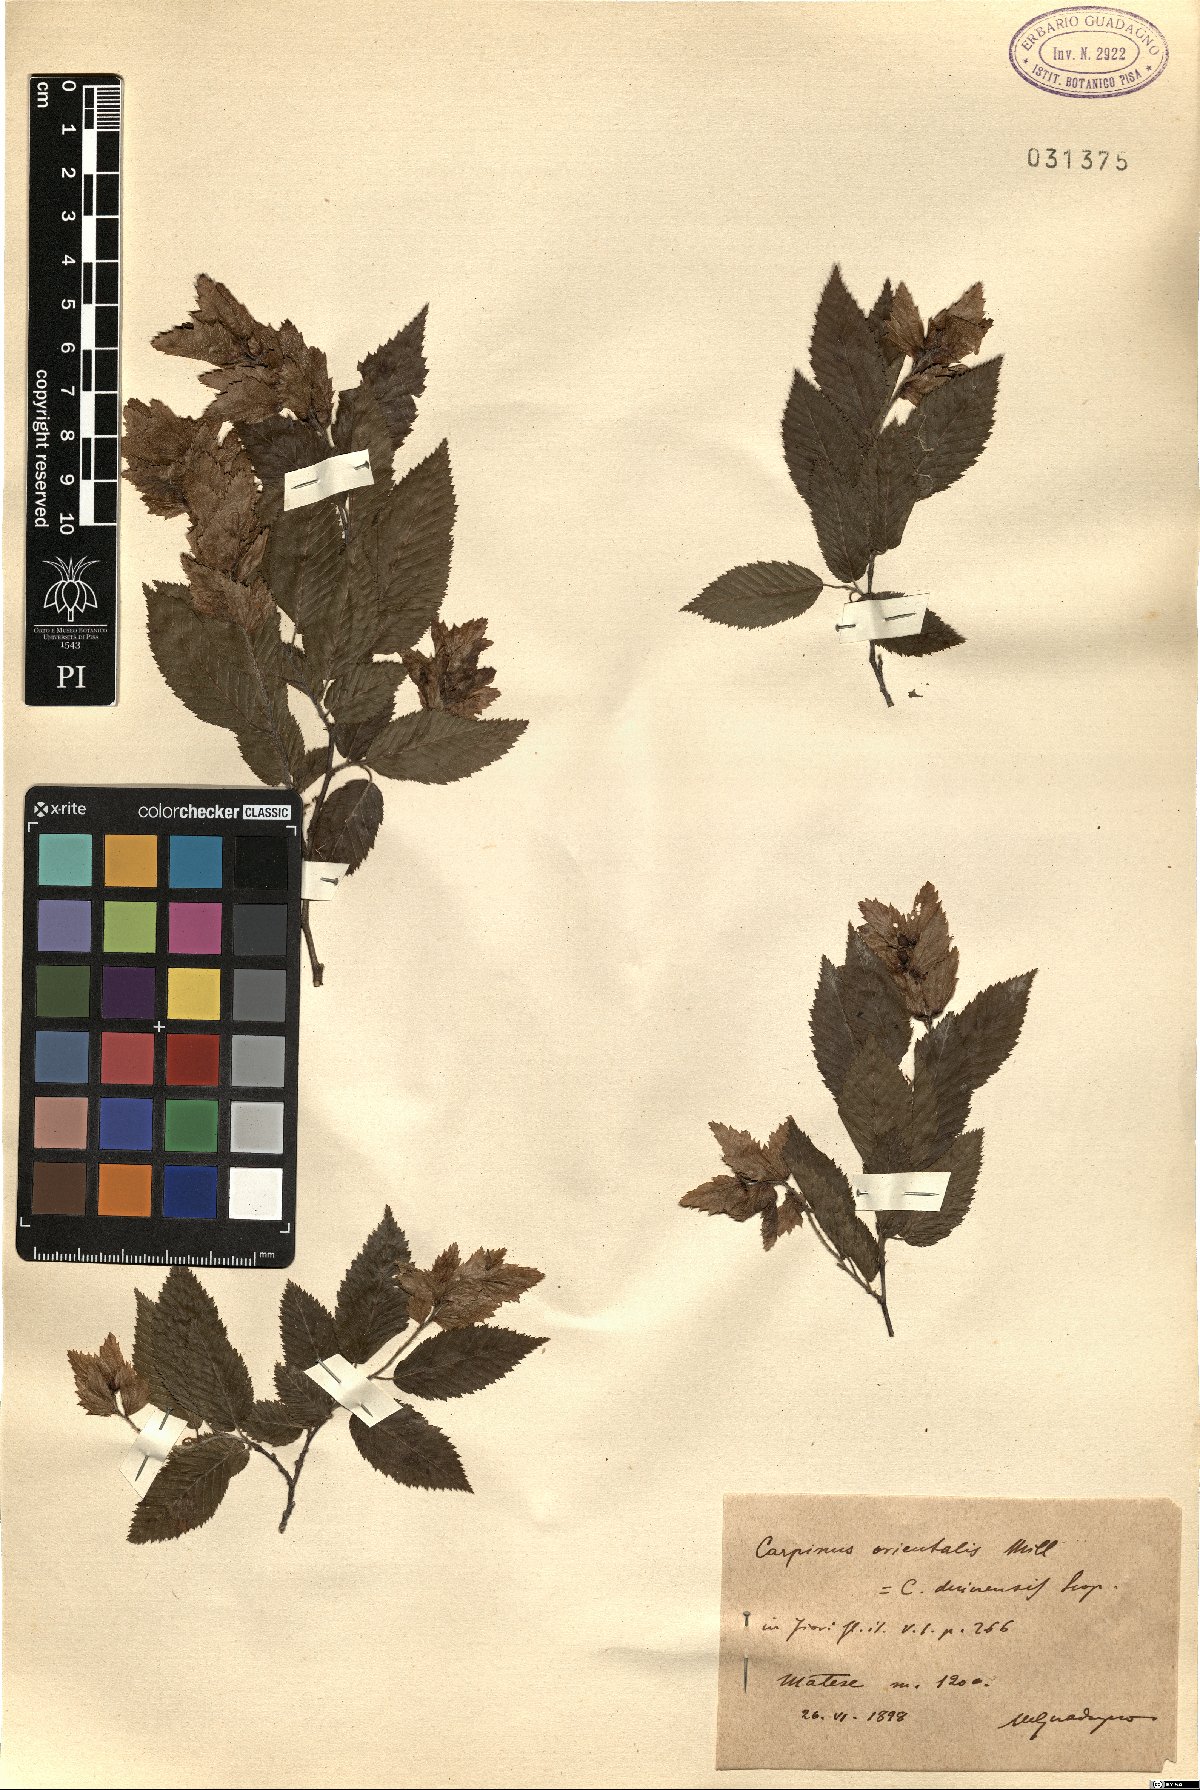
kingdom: Plantae
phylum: Tracheophyta
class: Magnoliopsida
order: Fagales
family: Betulaceae
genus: Carpinus
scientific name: Carpinus orientalis
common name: Eastern hornbeam
